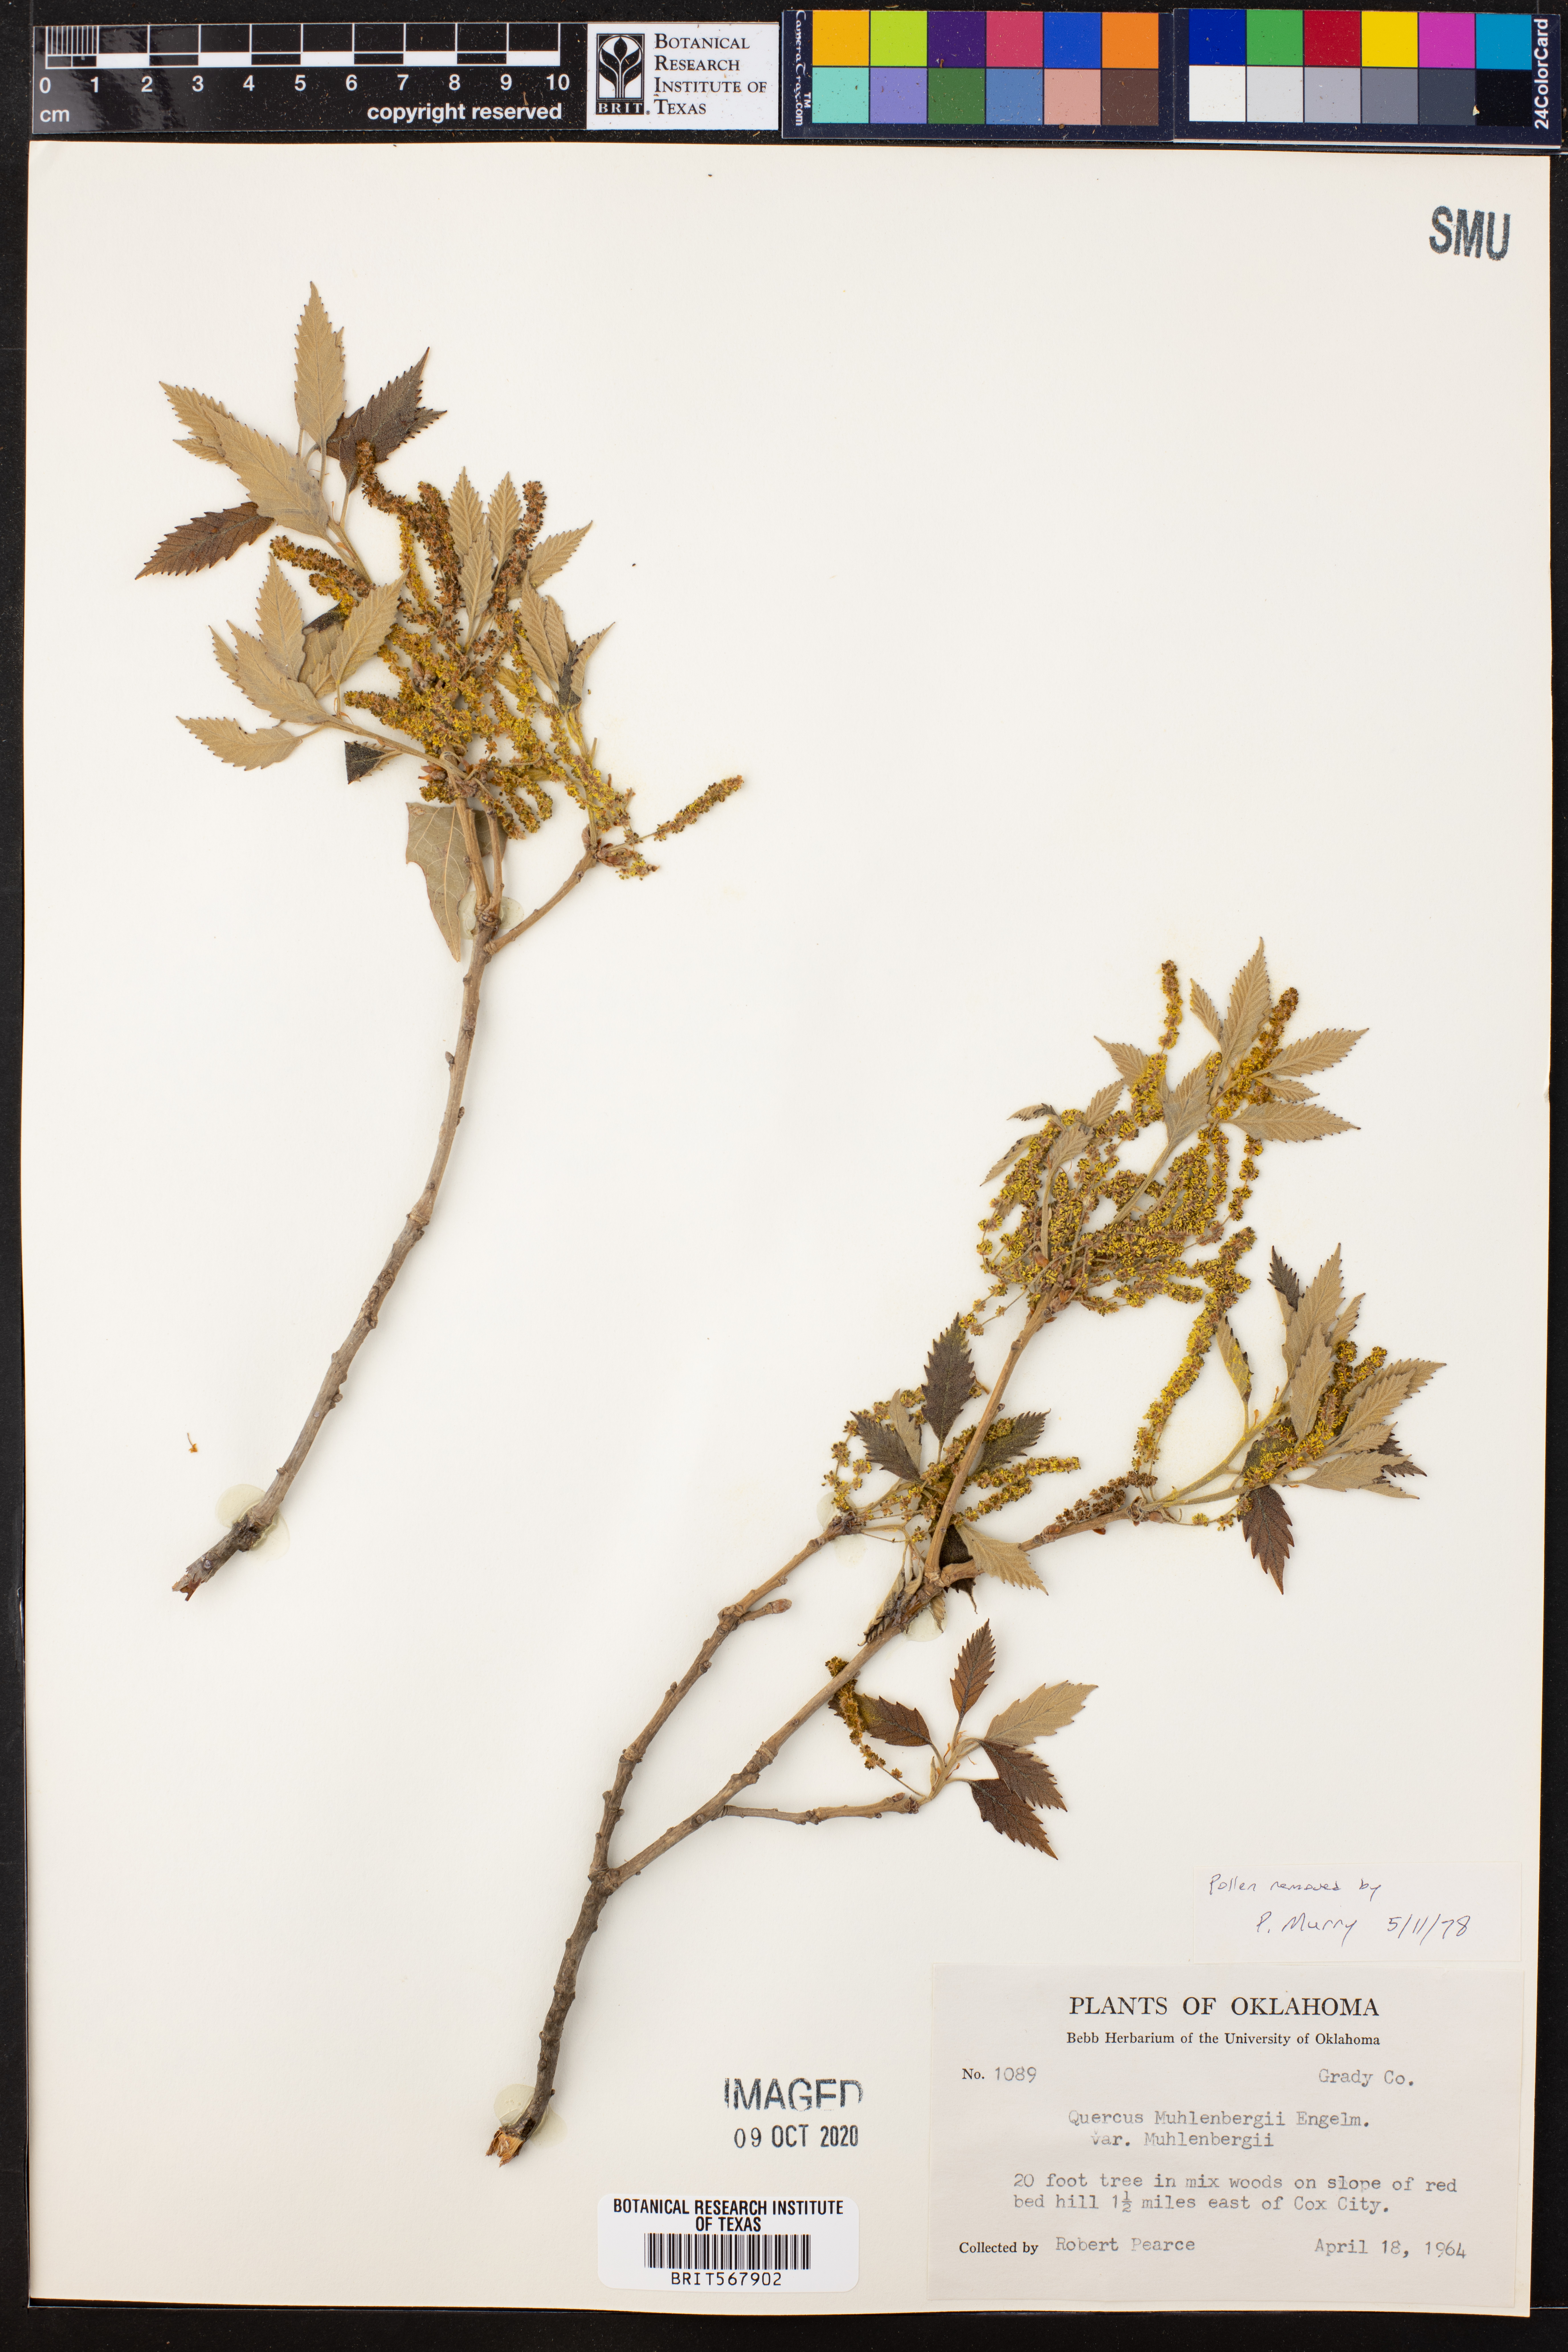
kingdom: Plantae
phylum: Tracheophyta
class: Magnoliopsida
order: Fagales
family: Fagaceae
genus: Quercus
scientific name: Quercus muehlenbergii
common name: Chinkapin oak
